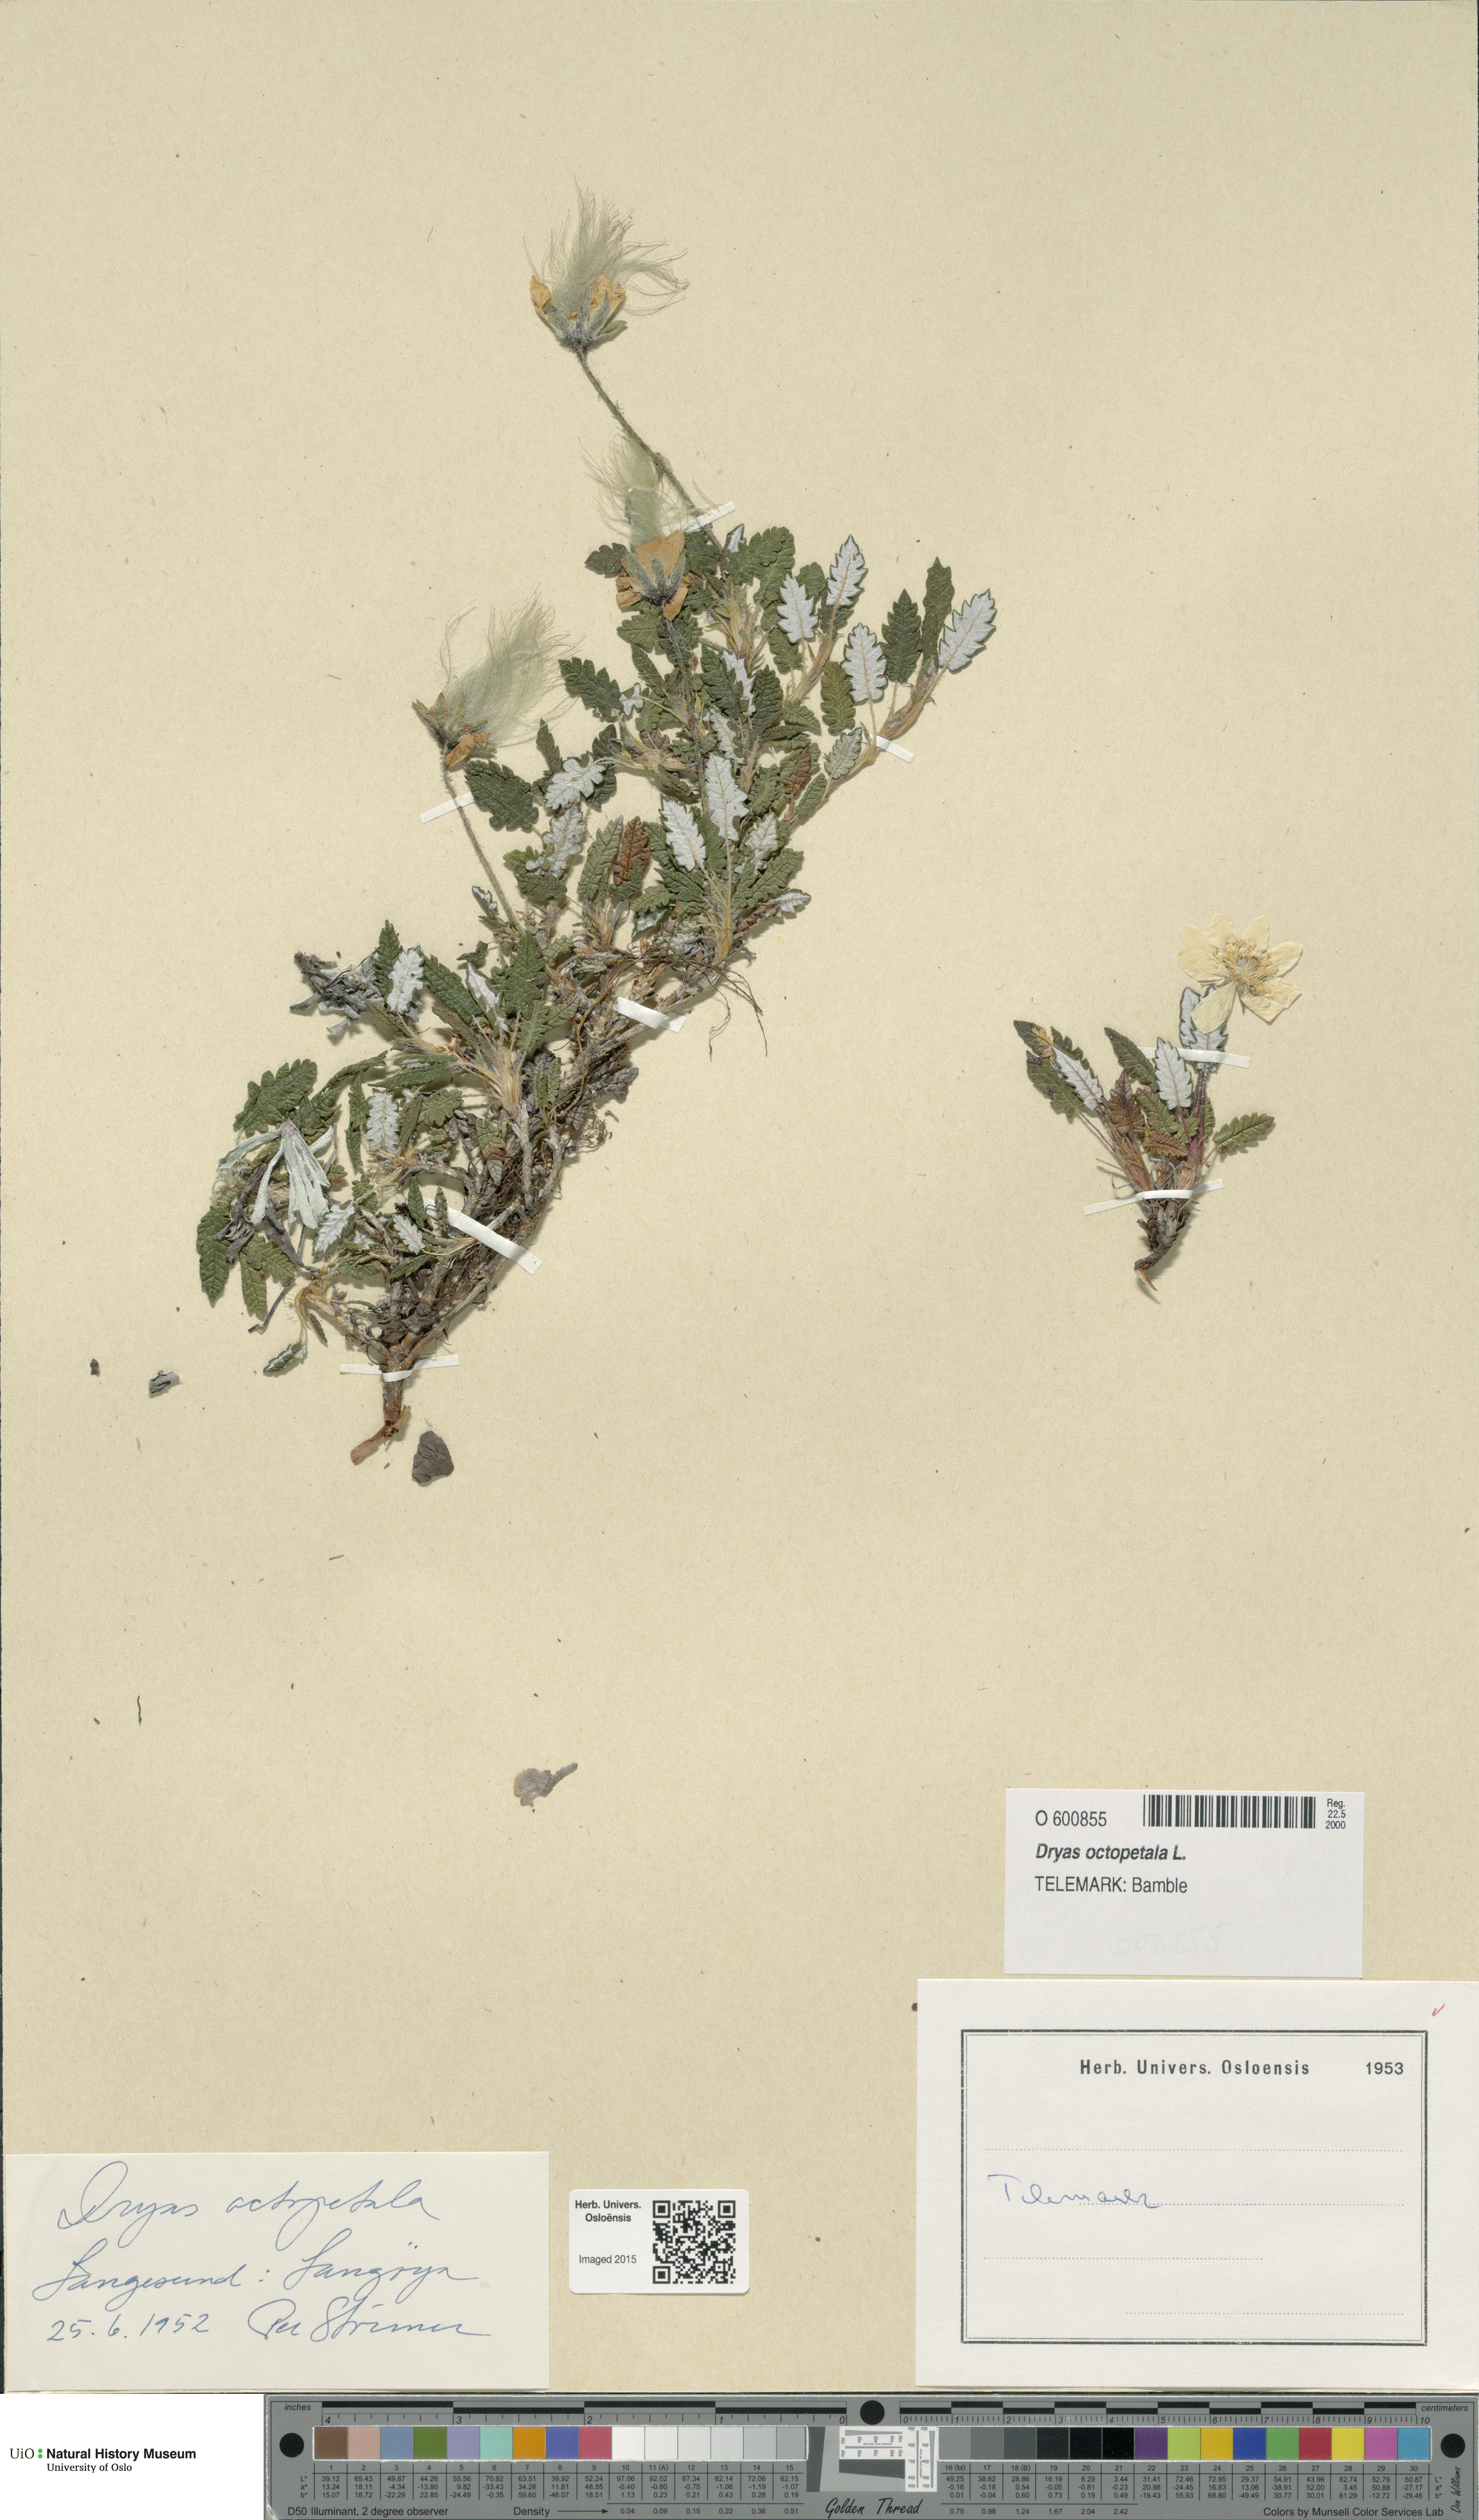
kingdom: Plantae
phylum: Tracheophyta
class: Magnoliopsida
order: Rosales
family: Rosaceae
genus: Dryas
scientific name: Dryas octopetala
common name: Eight-petal mountain-avens
